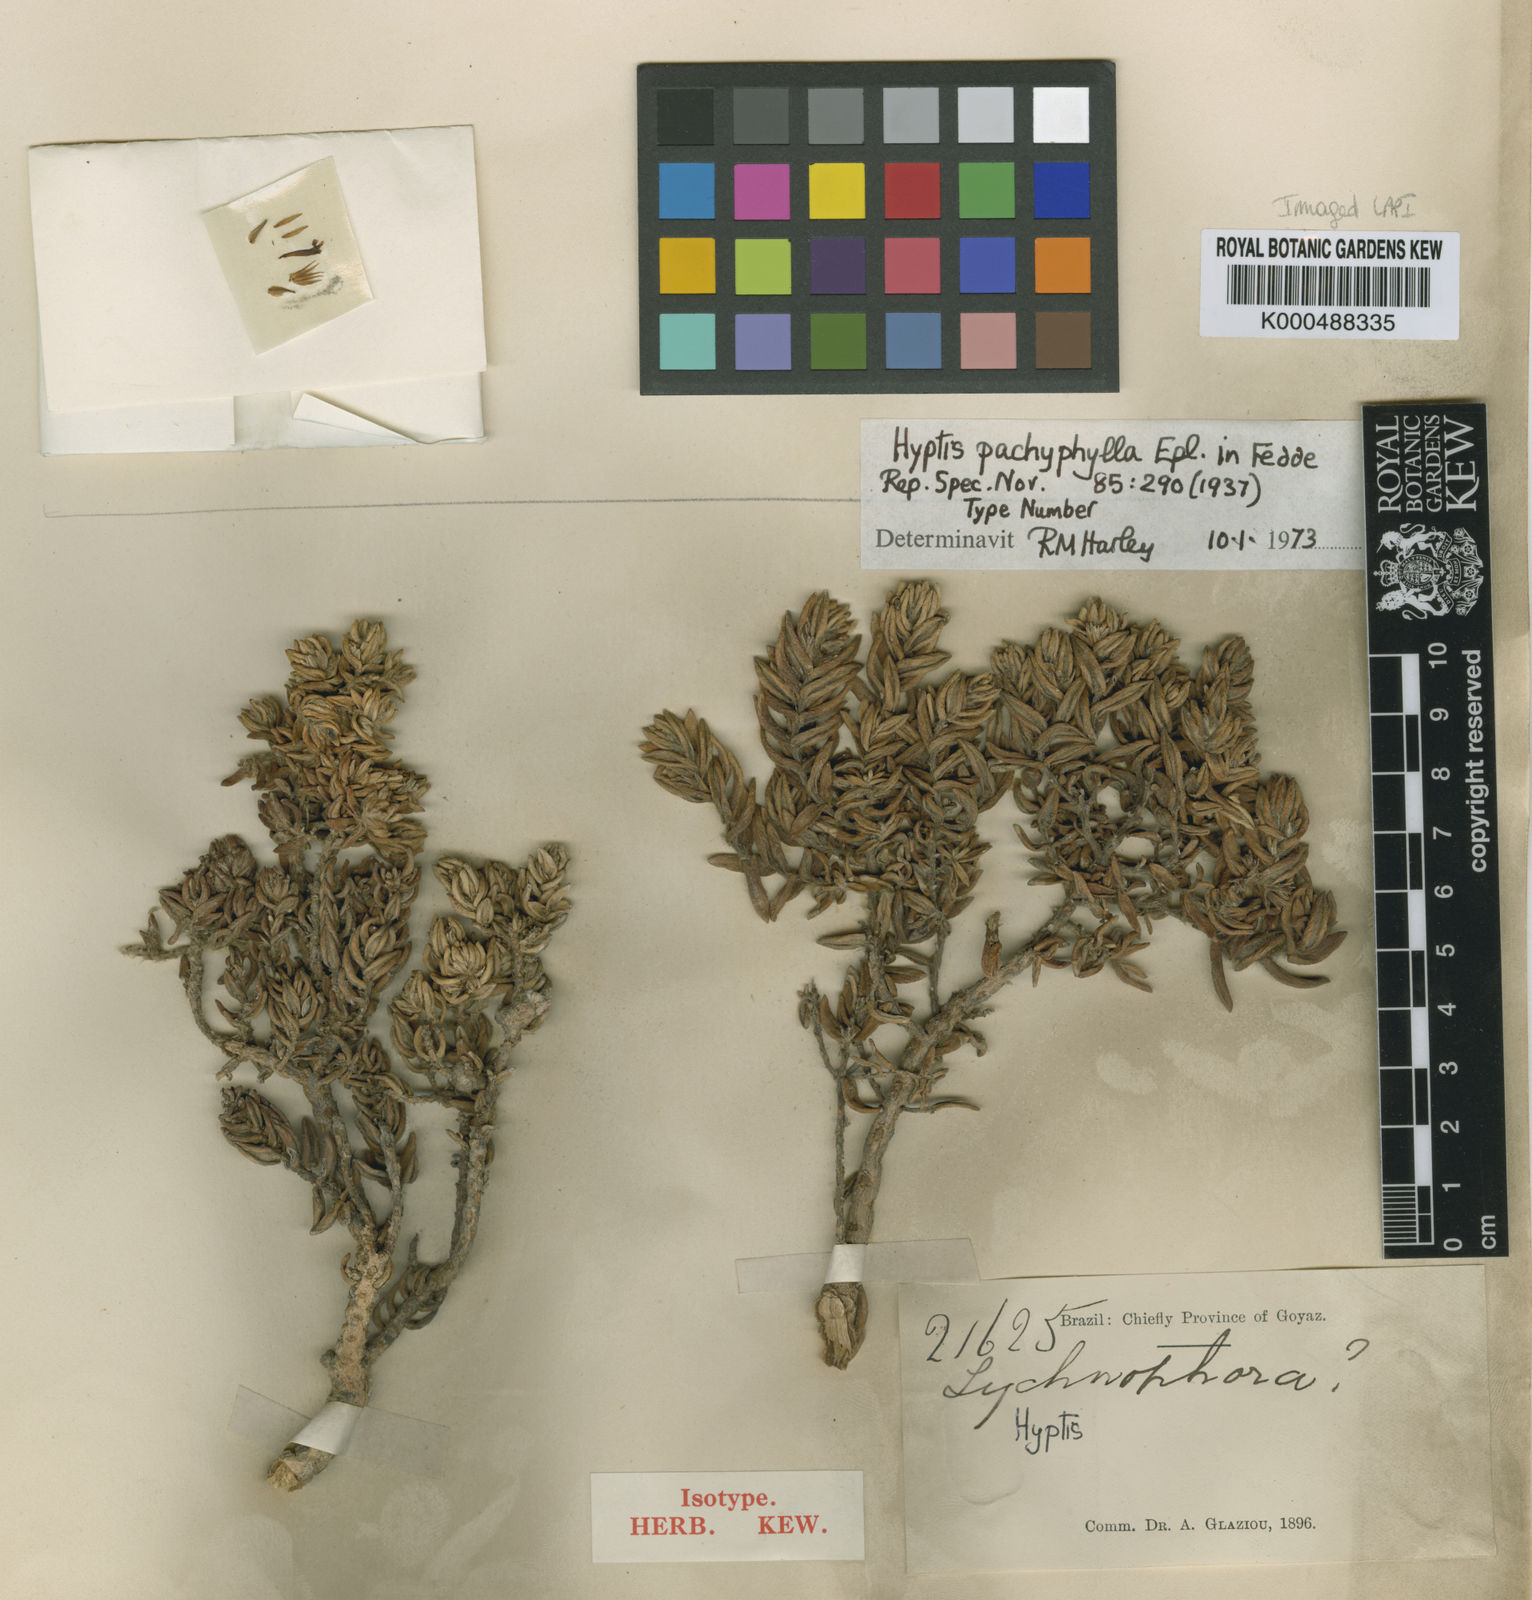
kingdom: Plantae
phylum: Tracheophyta
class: Magnoliopsida
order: Lamiales
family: Lamiaceae
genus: Hyptis
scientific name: Hyptis pachyphylla
